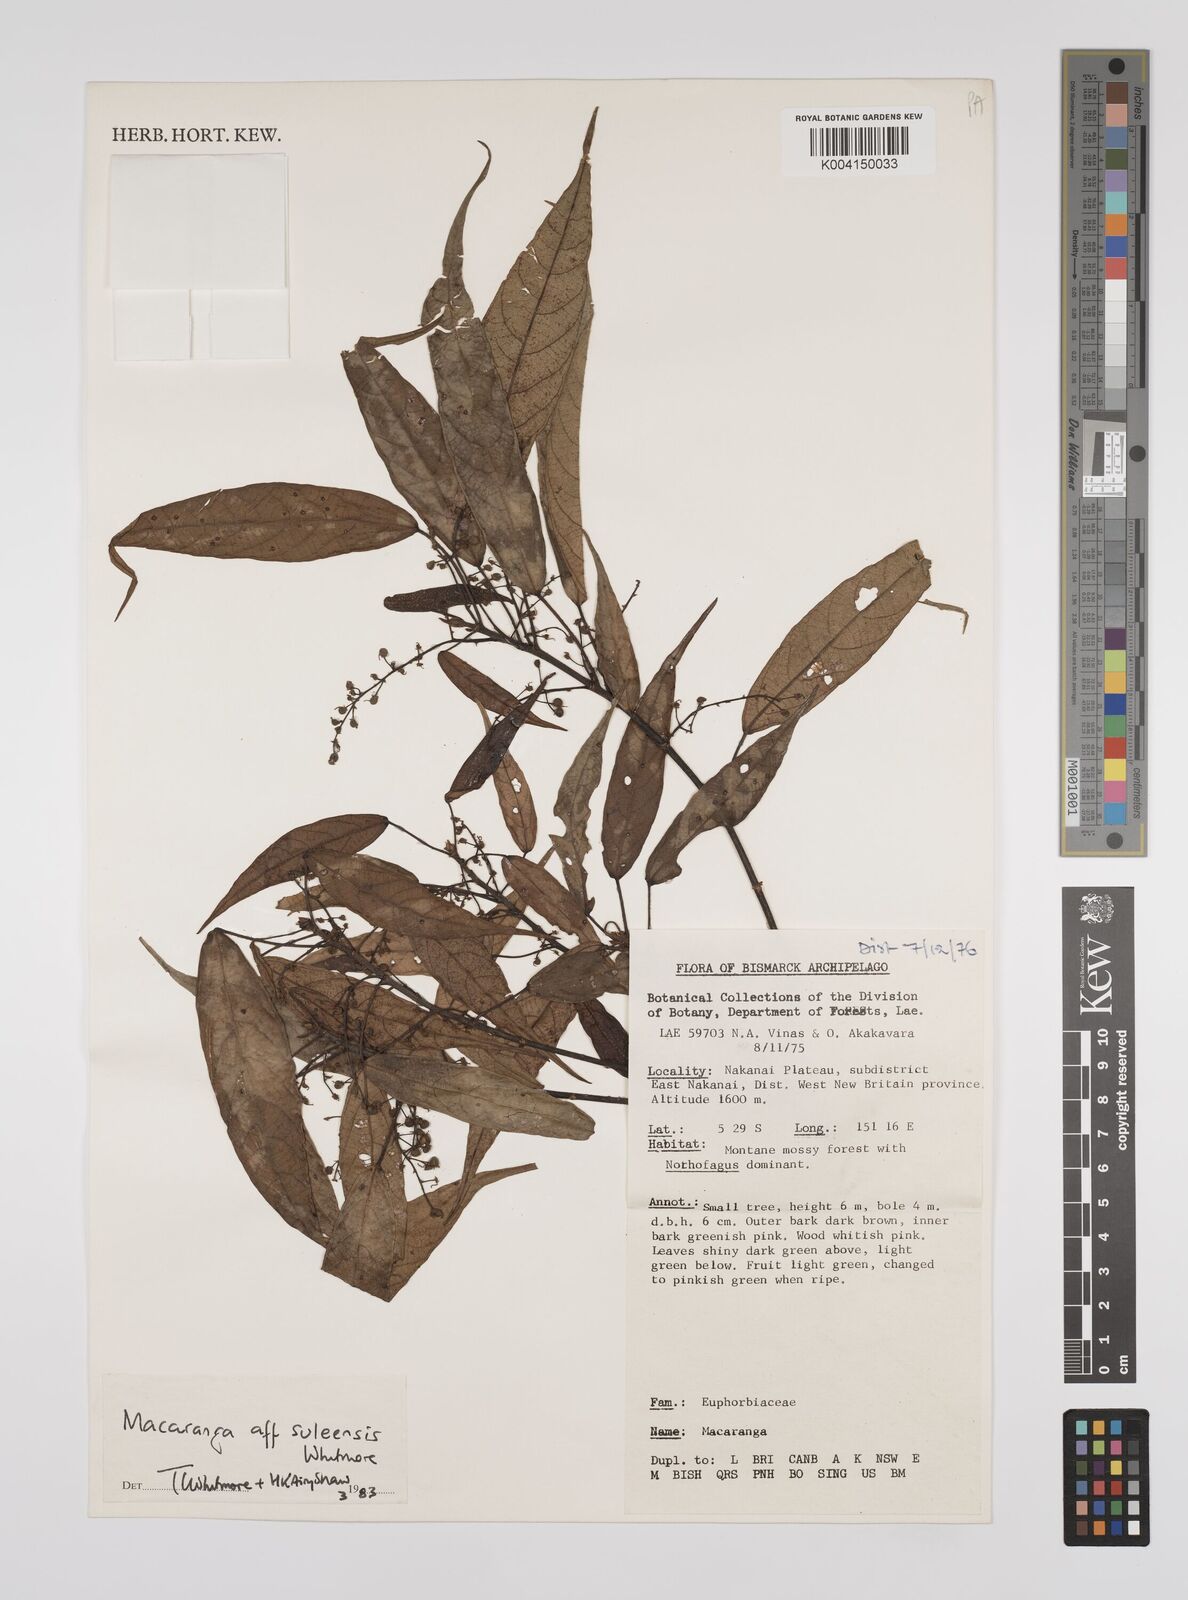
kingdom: Plantae
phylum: Tracheophyta
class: Magnoliopsida
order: Malpighiales
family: Euphorbiaceae
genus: Macaranga
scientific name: Macaranga suleensis
